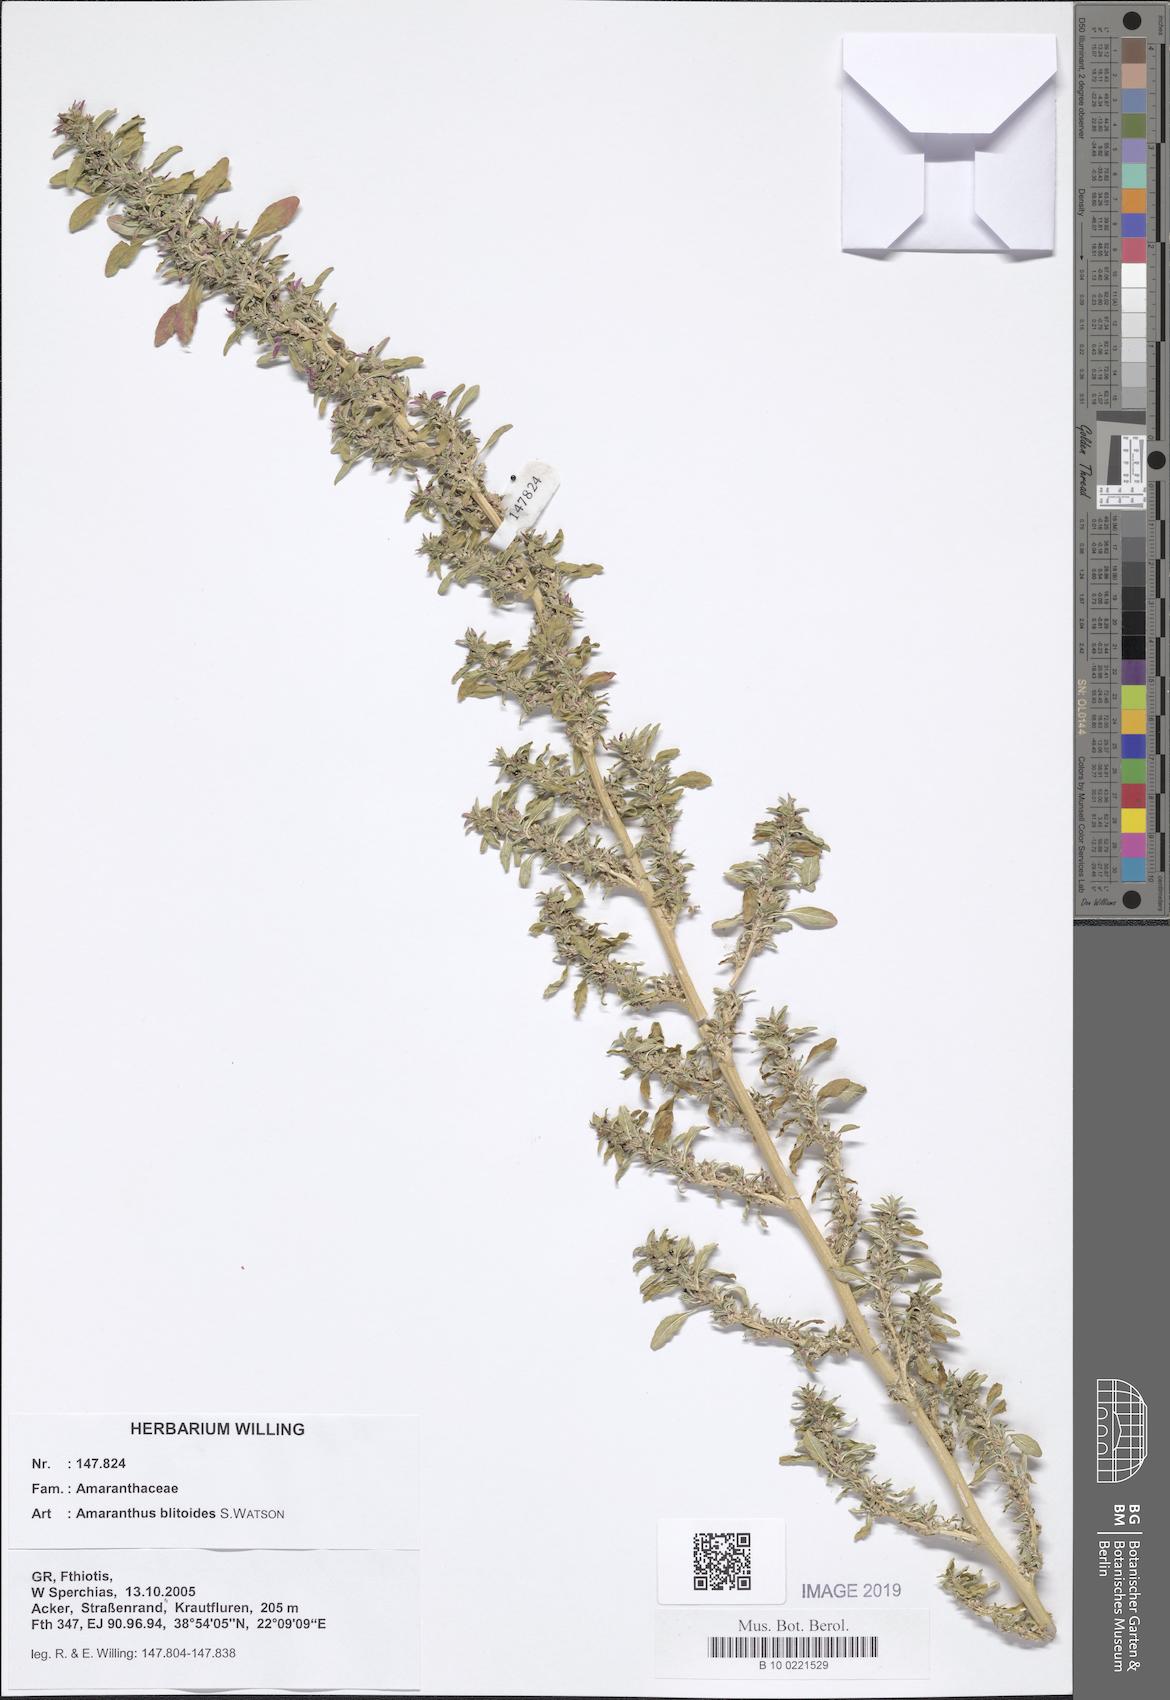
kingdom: Plantae
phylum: Tracheophyta
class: Magnoliopsida
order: Caryophyllales
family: Amaranthaceae
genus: Amaranthus
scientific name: Amaranthus blitoides
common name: Prostrate pigweed
